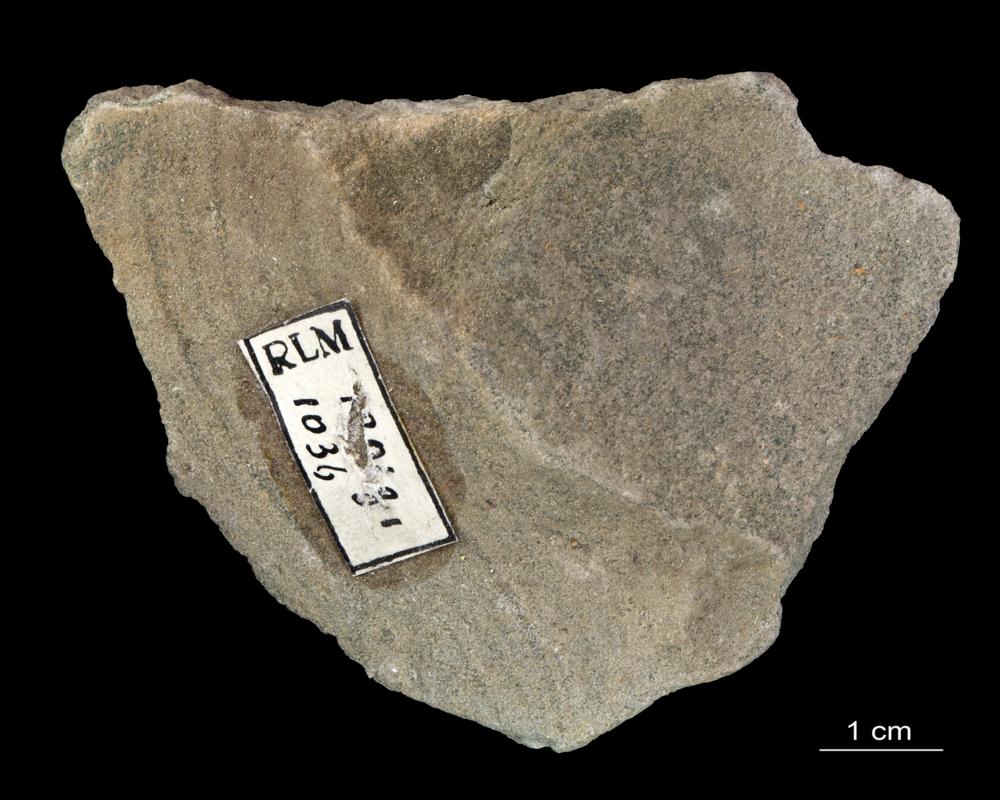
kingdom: Animalia
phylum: Annelida
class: Polychaeta
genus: Volborthella
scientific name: Volborthella tenuis
